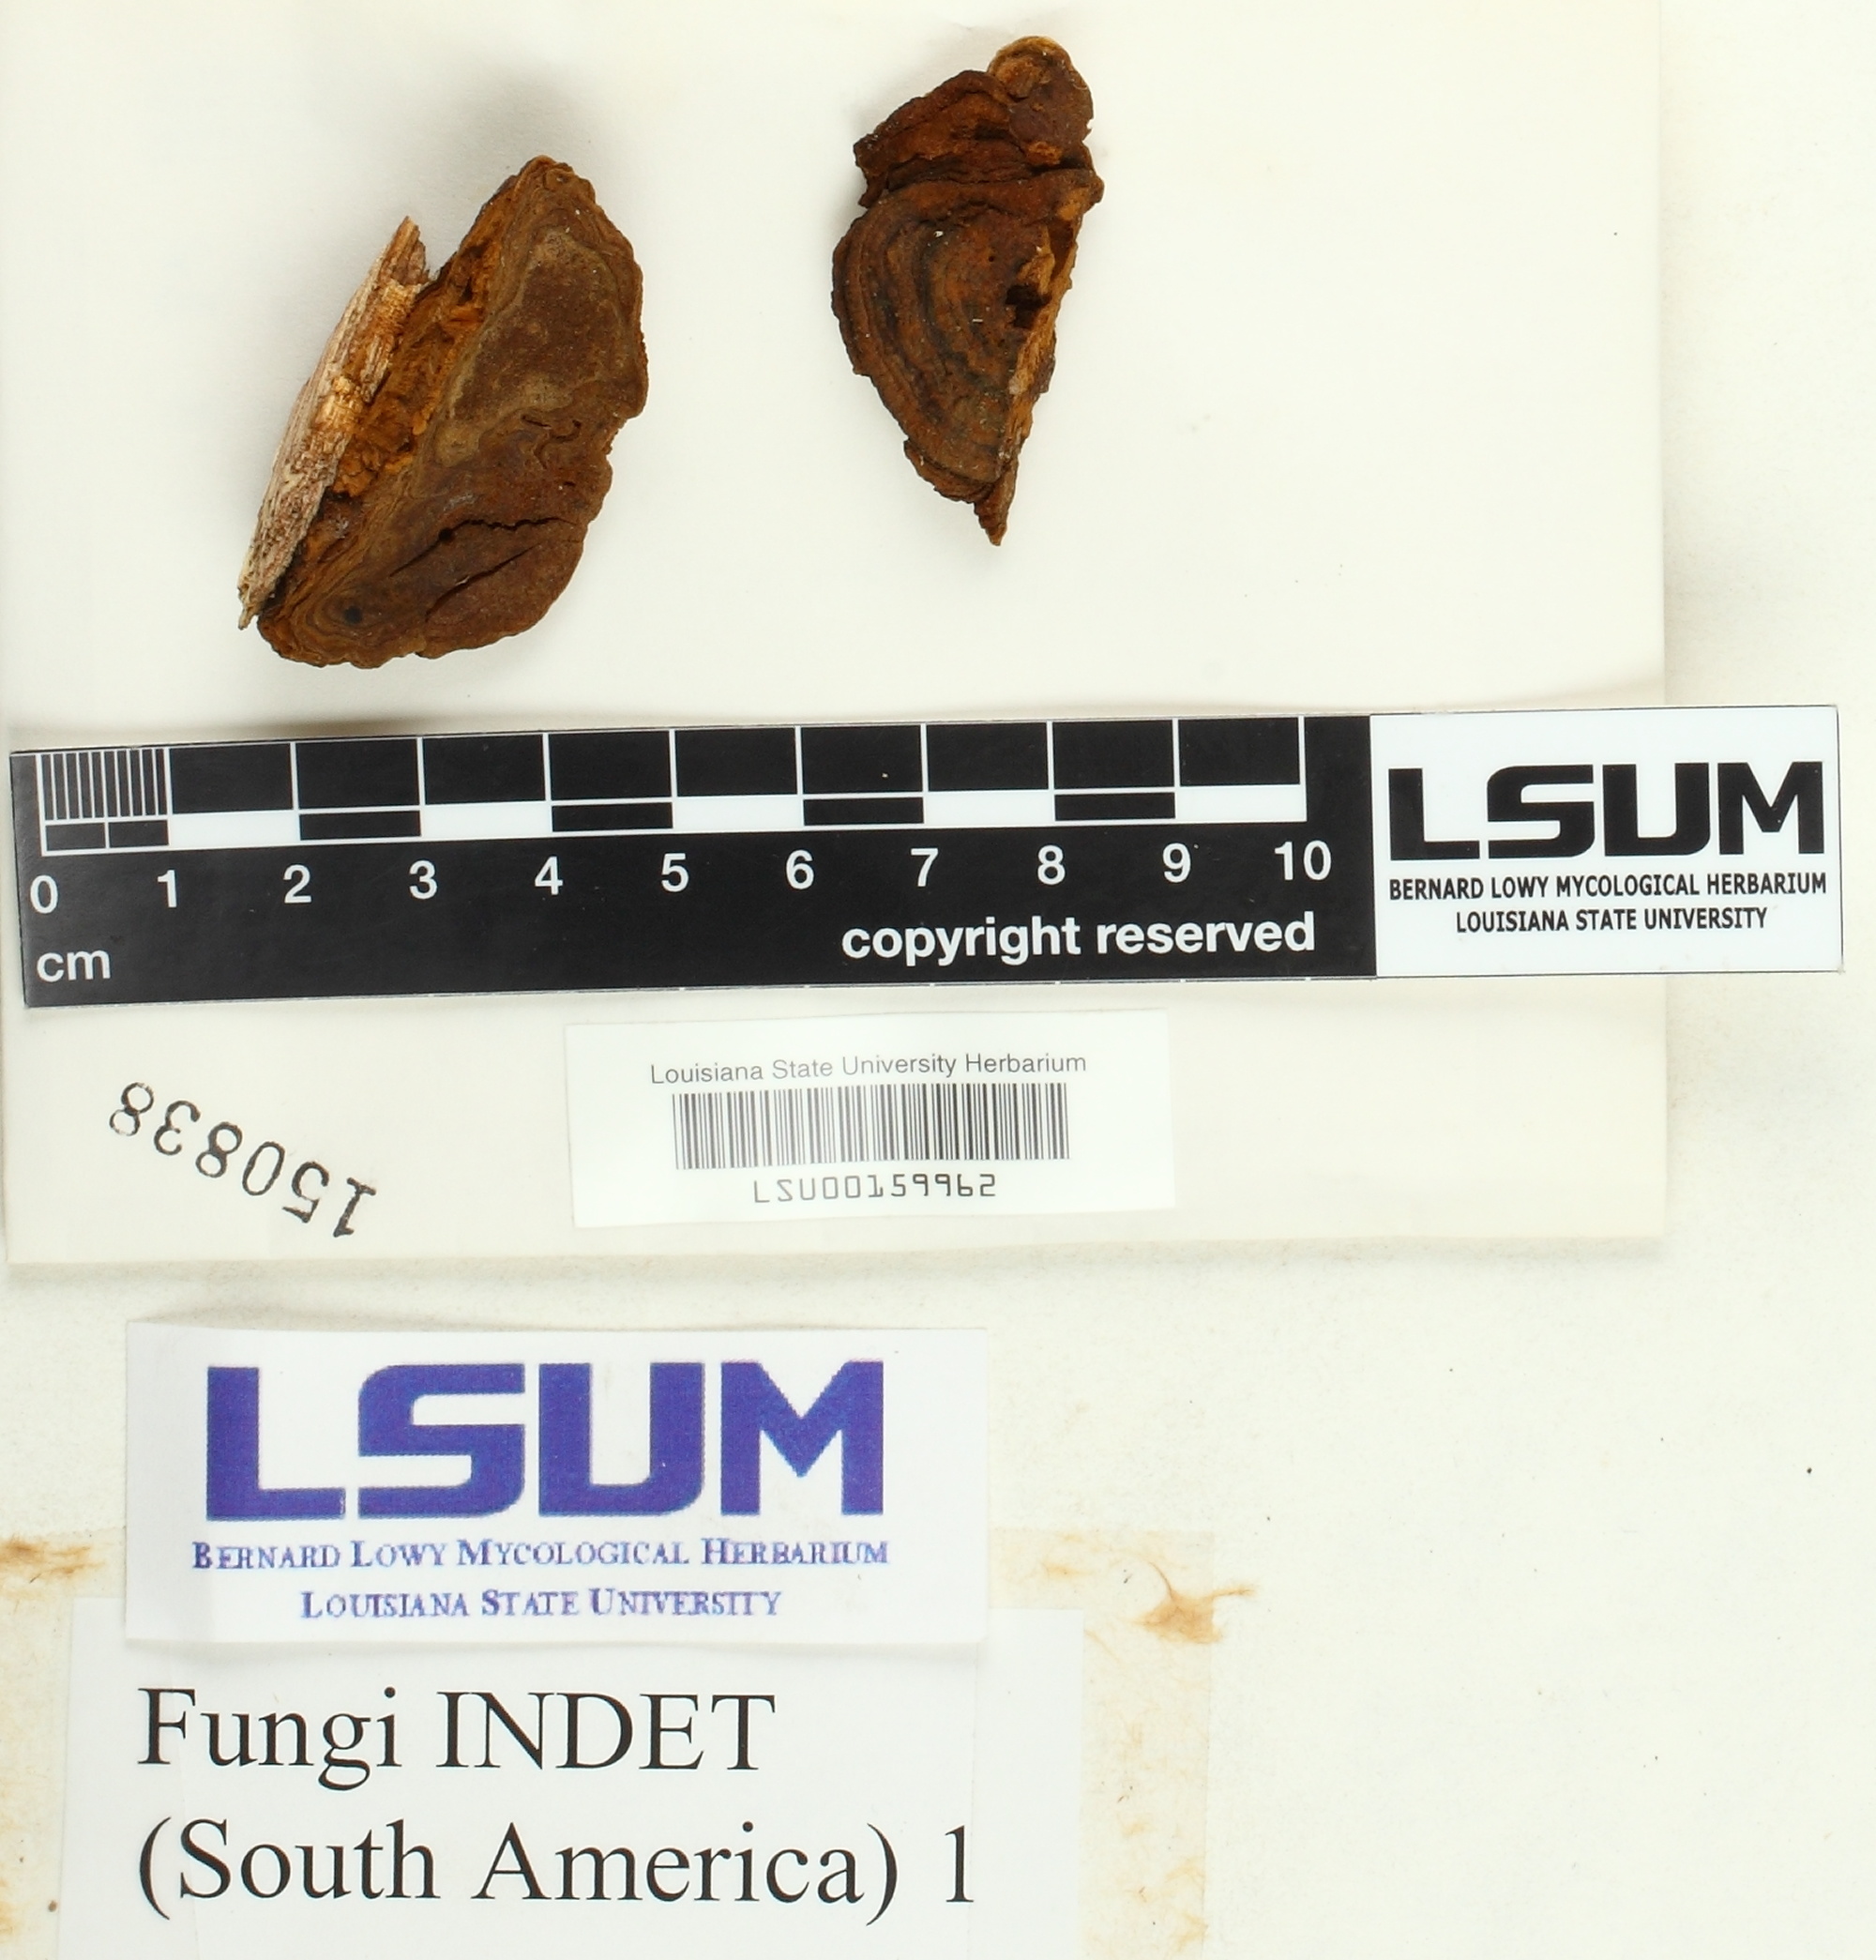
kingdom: Fungi
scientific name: Fungi
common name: Fungi
